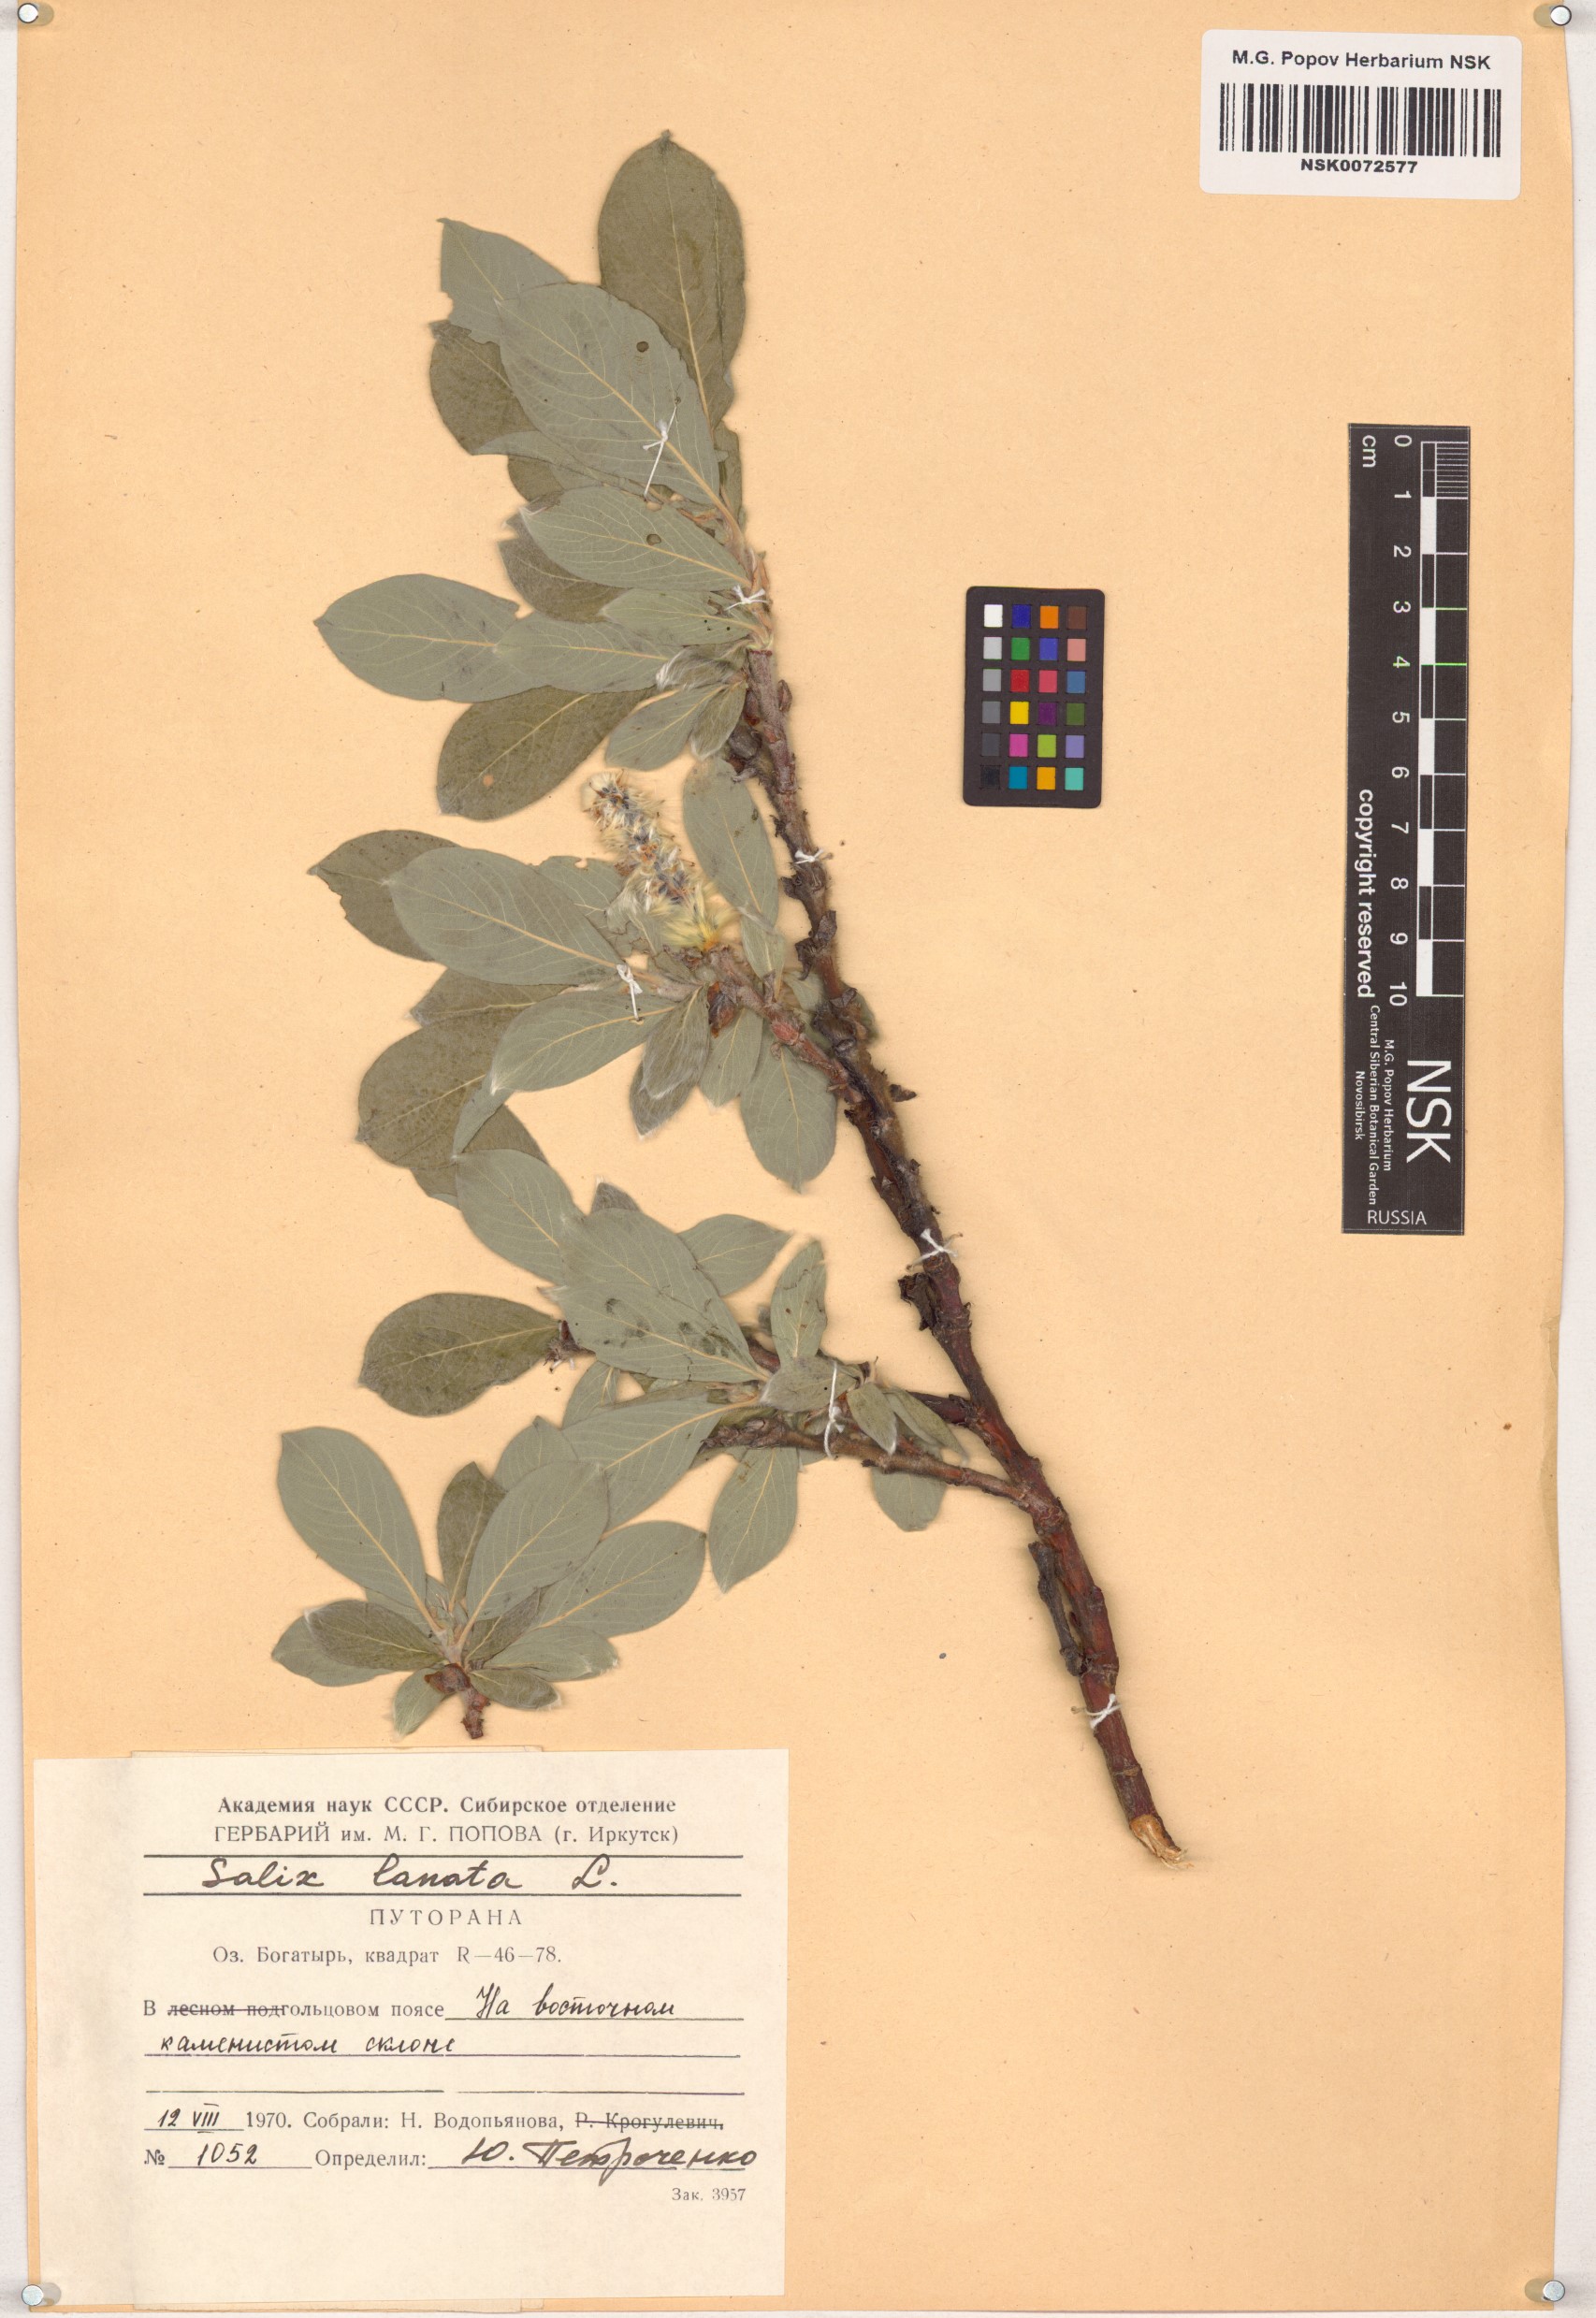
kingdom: Plantae
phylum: Tracheophyta
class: Magnoliopsida
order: Malpighiales
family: Salicaceae
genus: Salix
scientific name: Salix lanata
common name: Woolly willow
